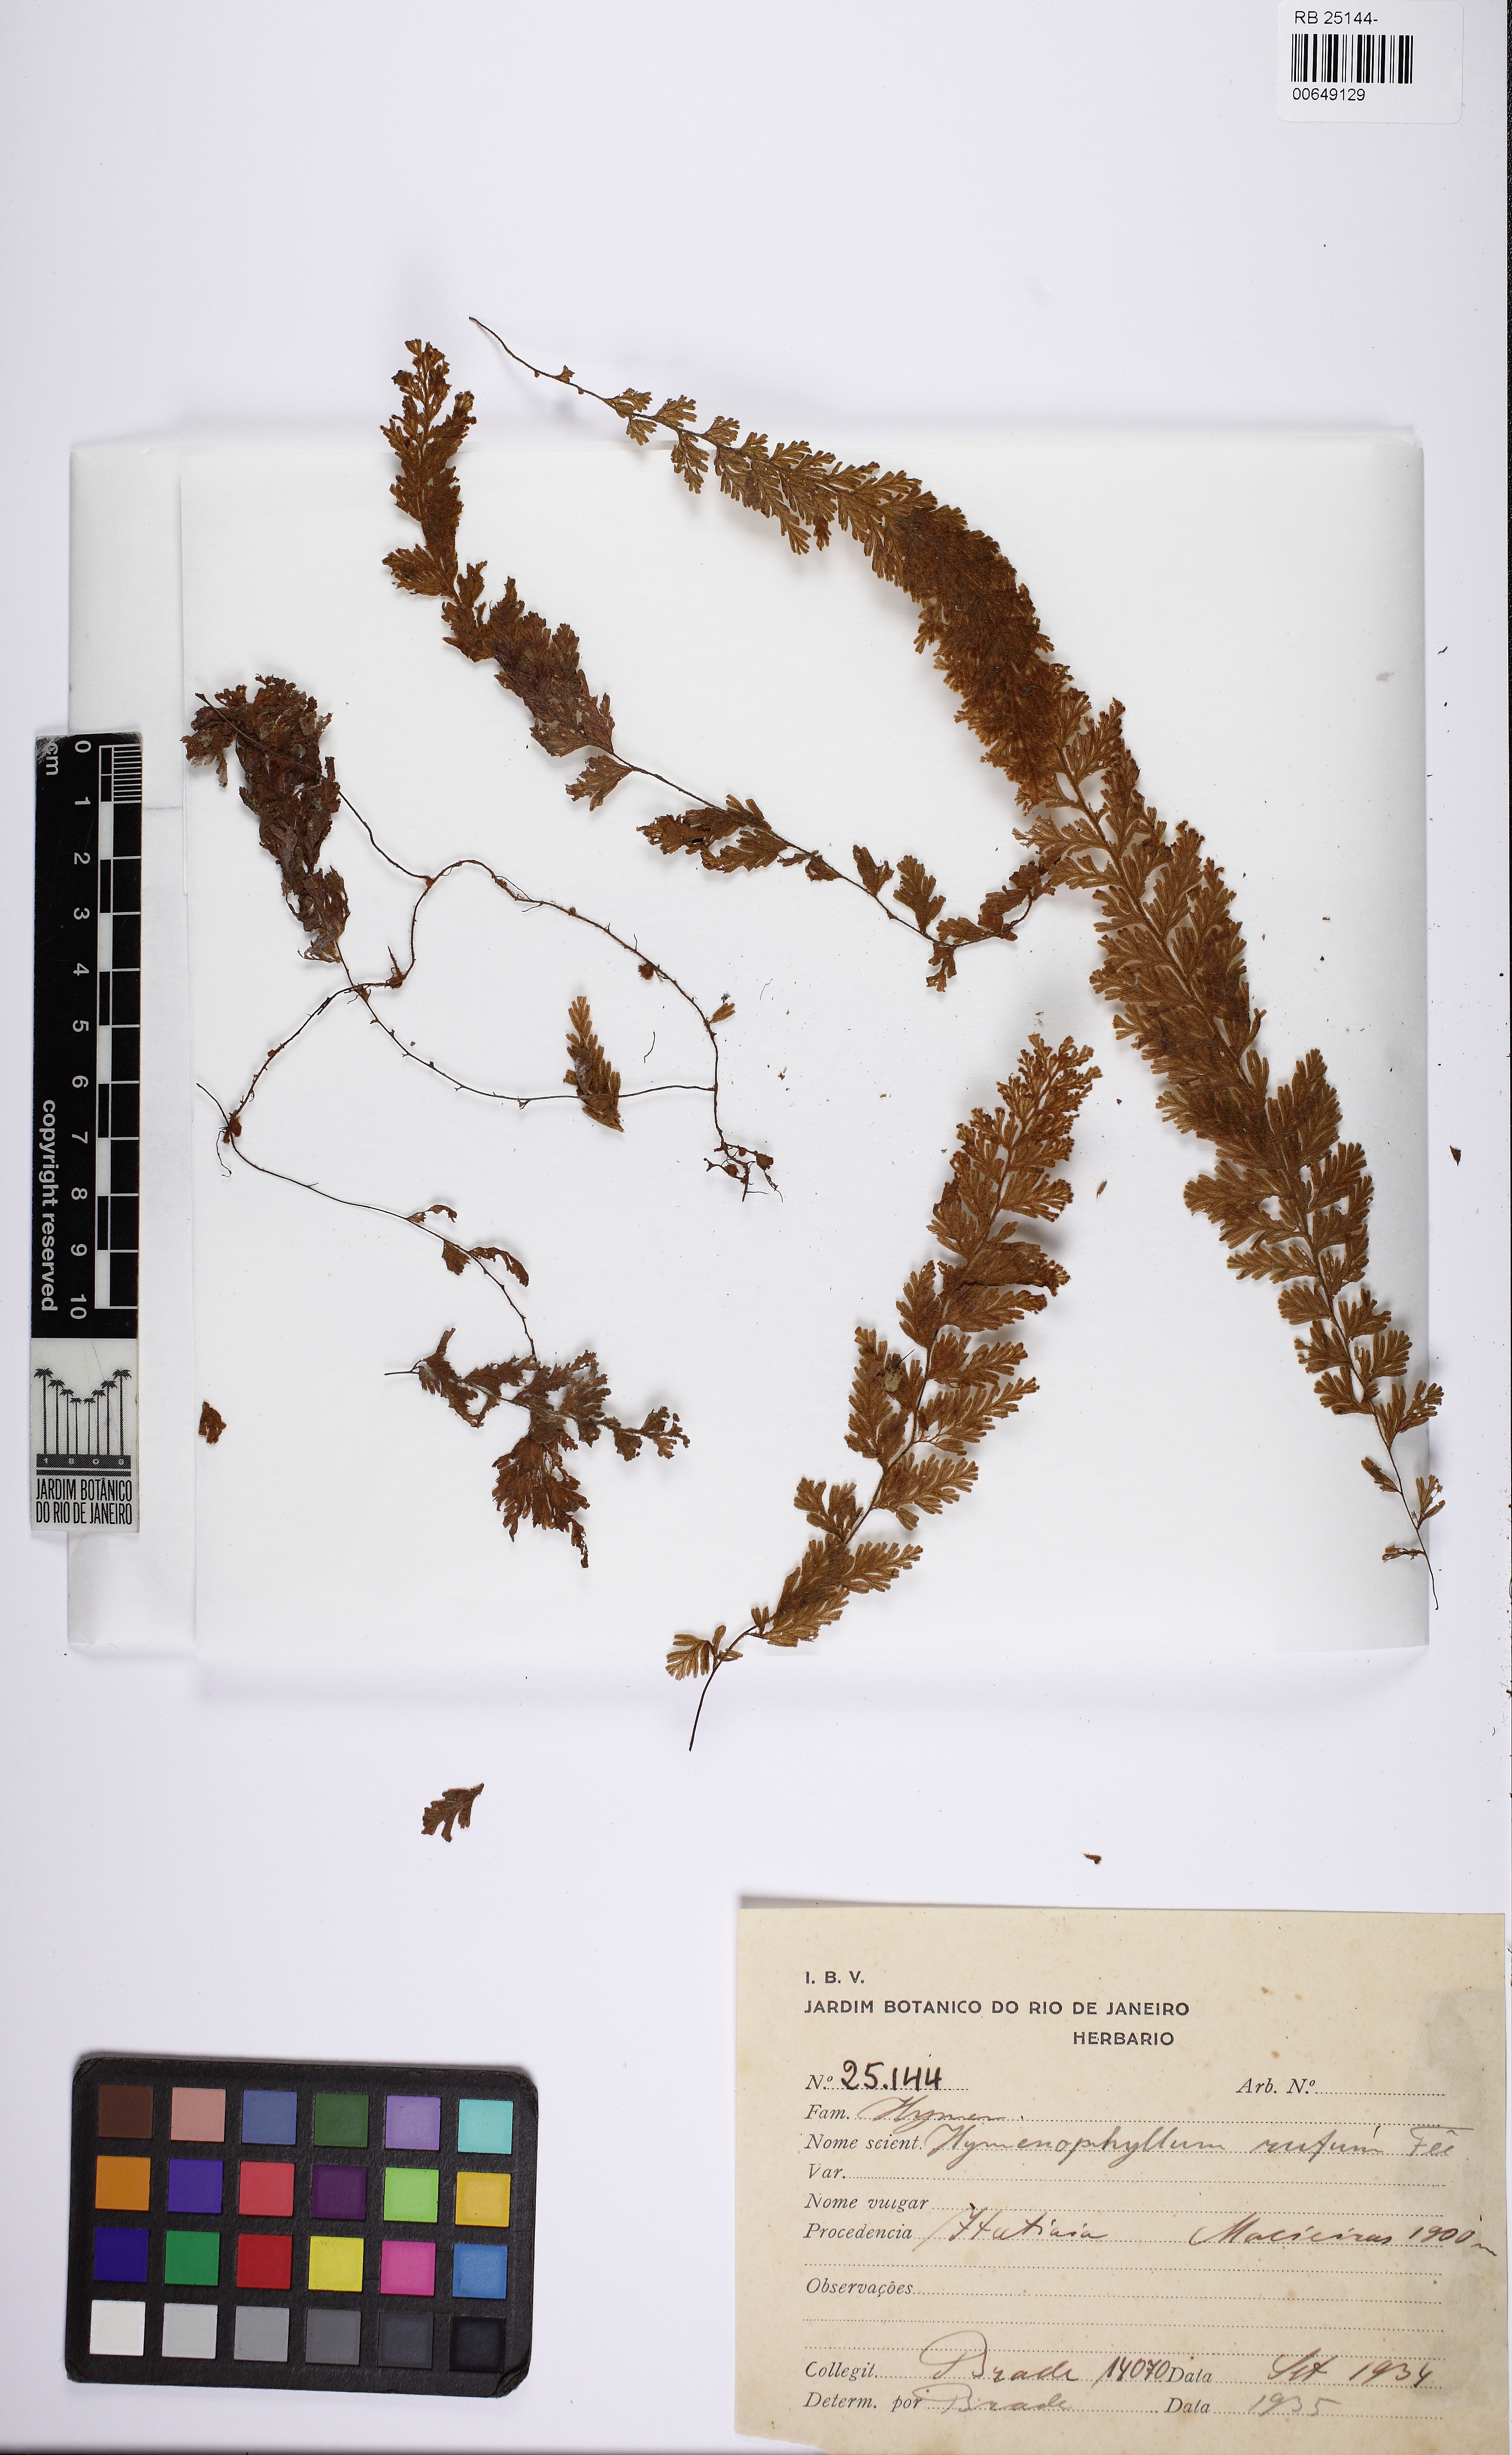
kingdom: Plantae
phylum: Tracheophyta
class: Polypodiopsida
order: Hymenophyllales
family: Hymenophyllaceae
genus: Hymenophyllum
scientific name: Hymenophyllum rufum
